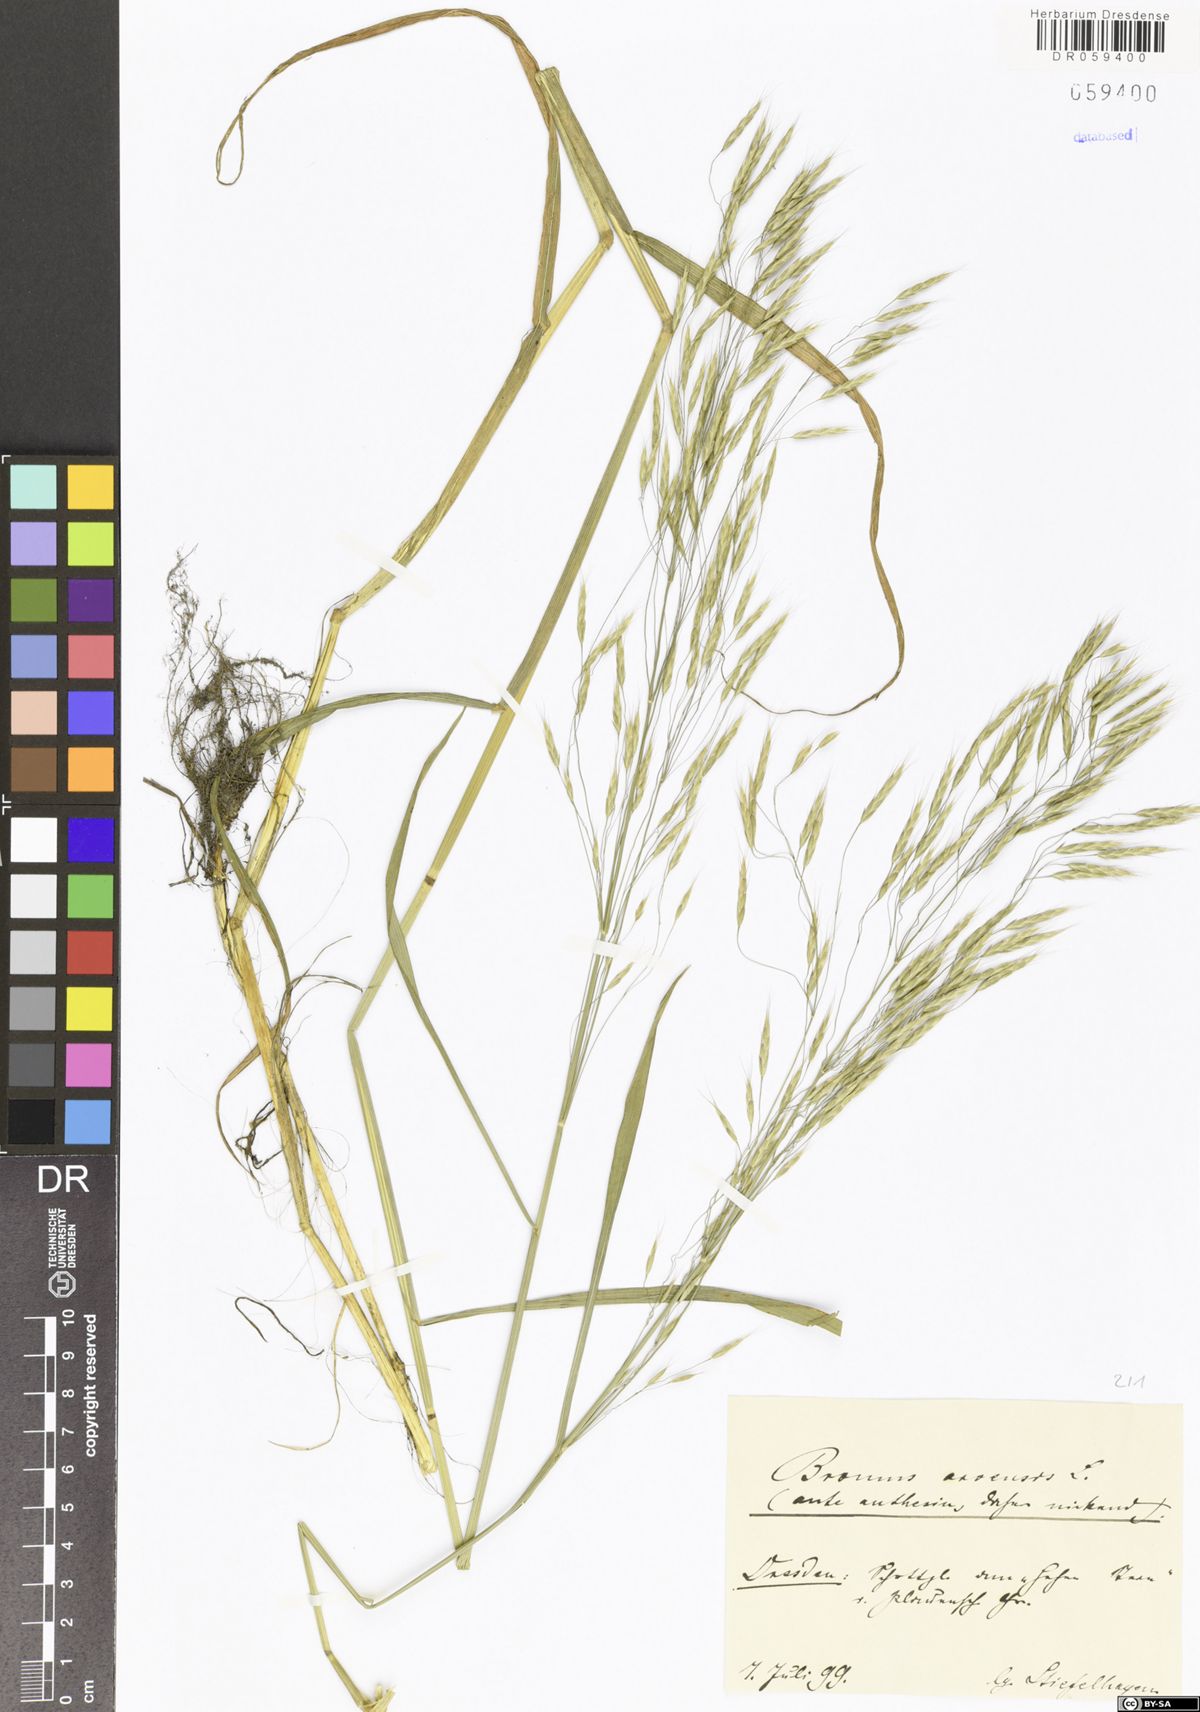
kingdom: Plantae
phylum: Tracheophyta
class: Liliopsida
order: Poales
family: Poaceae
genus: Bromus
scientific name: Bromus arvensis
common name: Field brome
